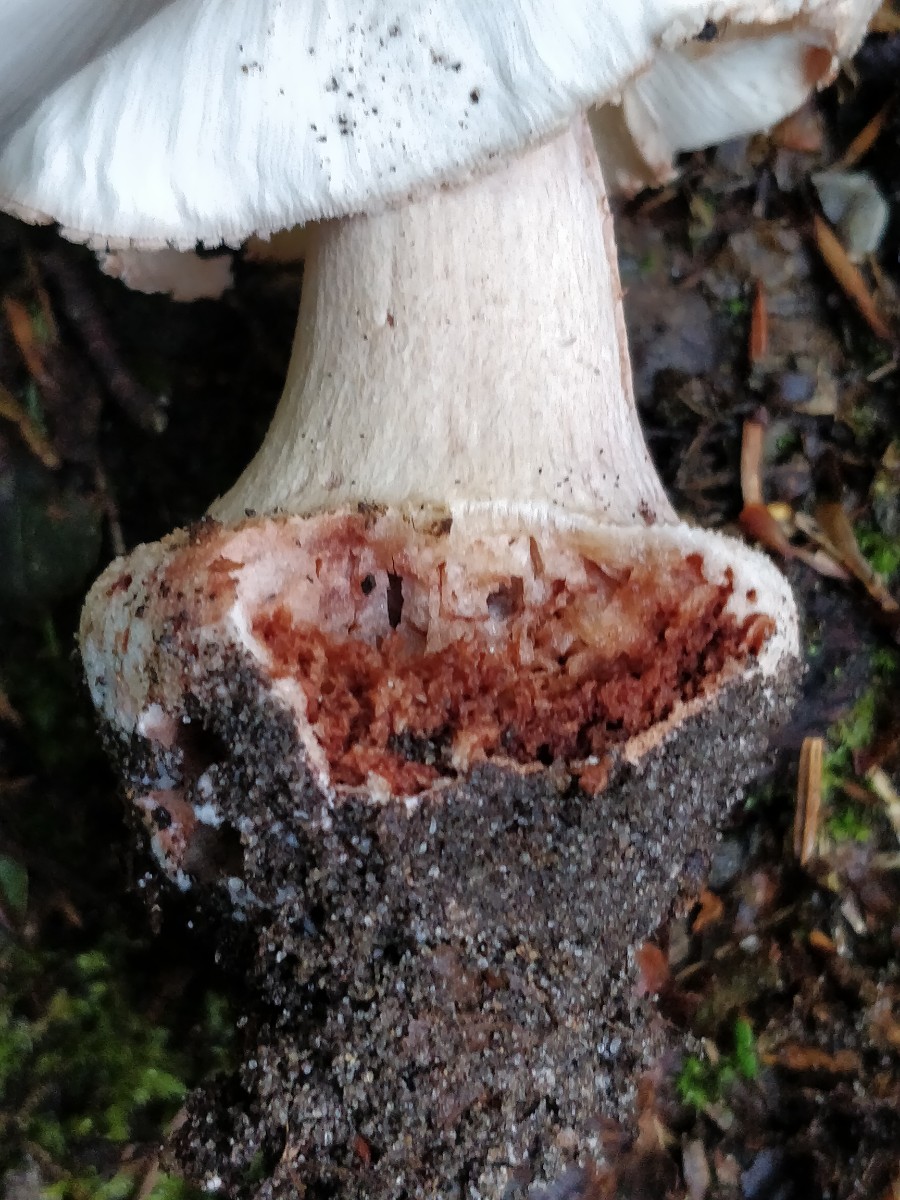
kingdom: Fungi
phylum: Basidiomycota
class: Agaricomycetes
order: Agaricales
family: Amanitaceae
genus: Amanita
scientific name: Amanita rubescens
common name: rødmende fluesvamp
